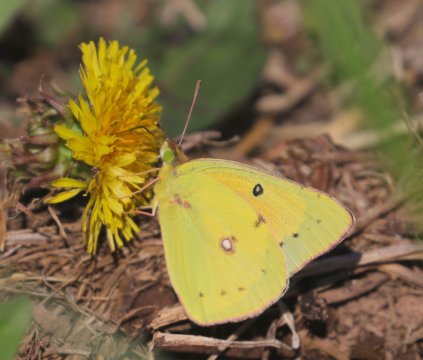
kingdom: Animalia
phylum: Arthropoda
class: Insecta
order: Lepidoptera
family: Pieridae
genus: Colias
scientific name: Colias eurytheme
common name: Orange Sulphur
